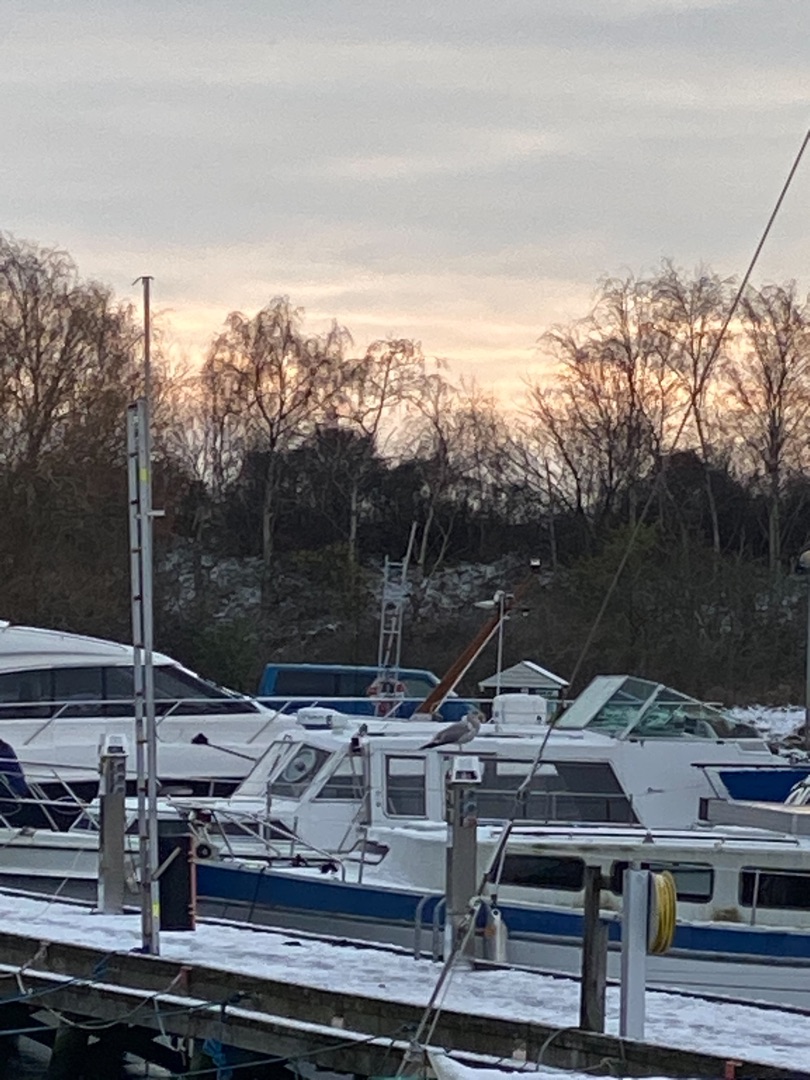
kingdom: Animalia
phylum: Chordata
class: Aves
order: Charadriiformes
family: Laridae
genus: Larus
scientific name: Larus argentatus
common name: Sølvmåge
